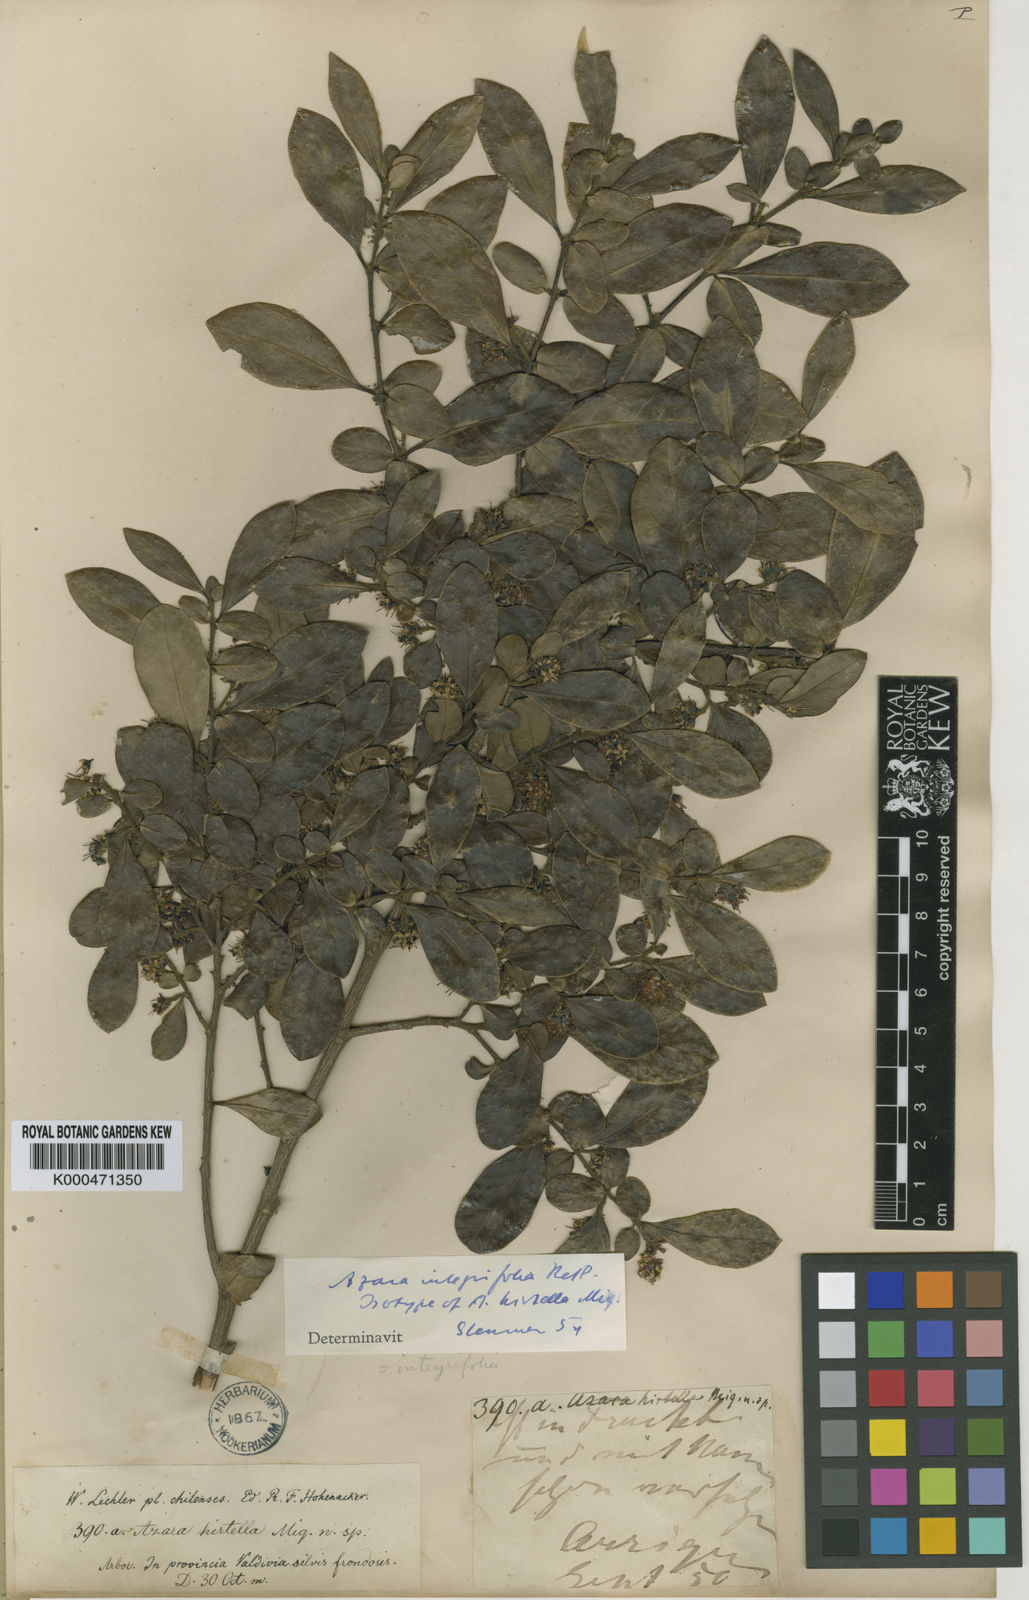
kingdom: Plantae
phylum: Tracheophyta
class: Magnoliopsida
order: Malpighiales
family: Salicaceae
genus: Azara
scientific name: Azara integrifolia
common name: Goldspire
